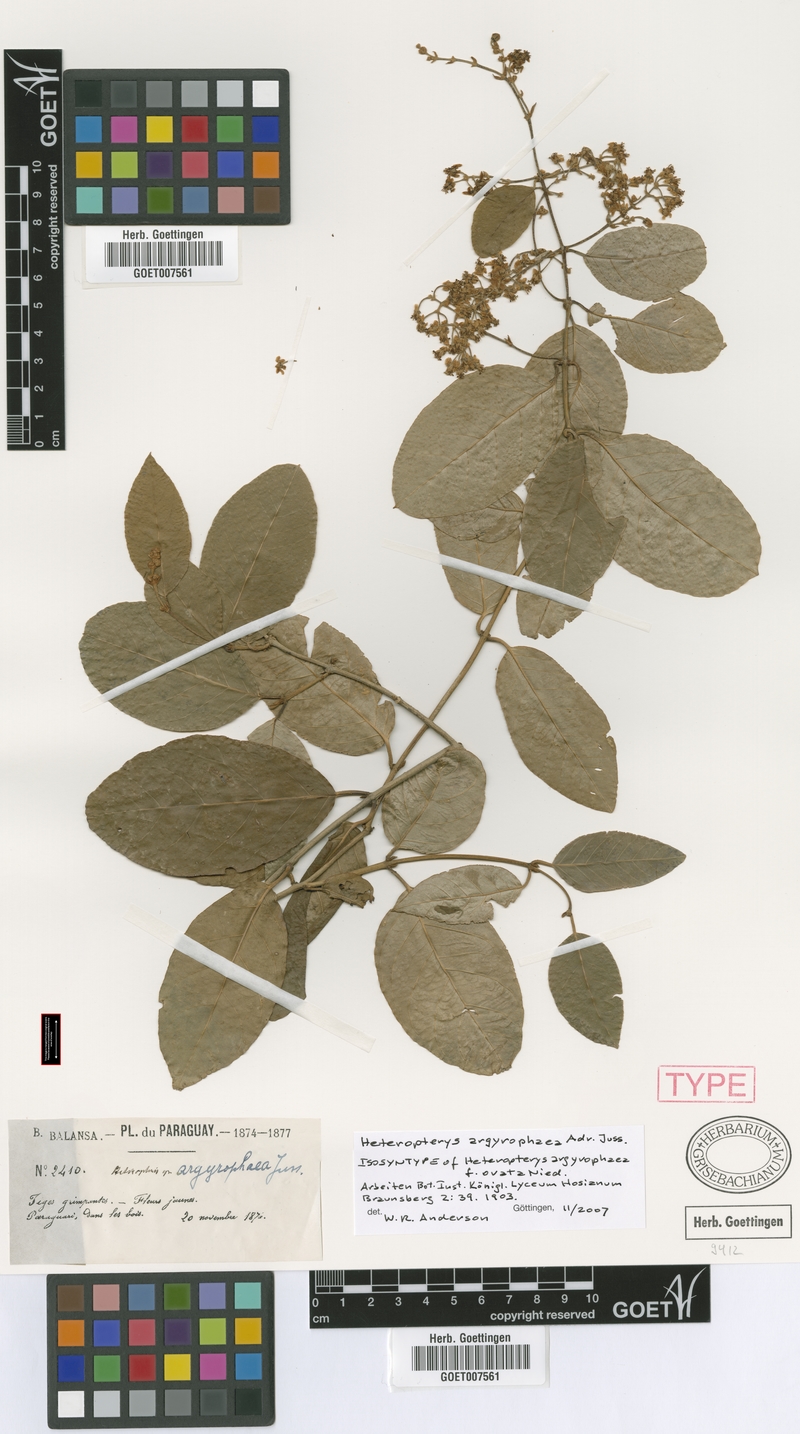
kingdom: Plantae
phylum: Tracheophyta
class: Magnoliopsida
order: Malpighiales
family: Malpighiaceae
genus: Heteropterys
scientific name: Heteropterys argyrophaea
